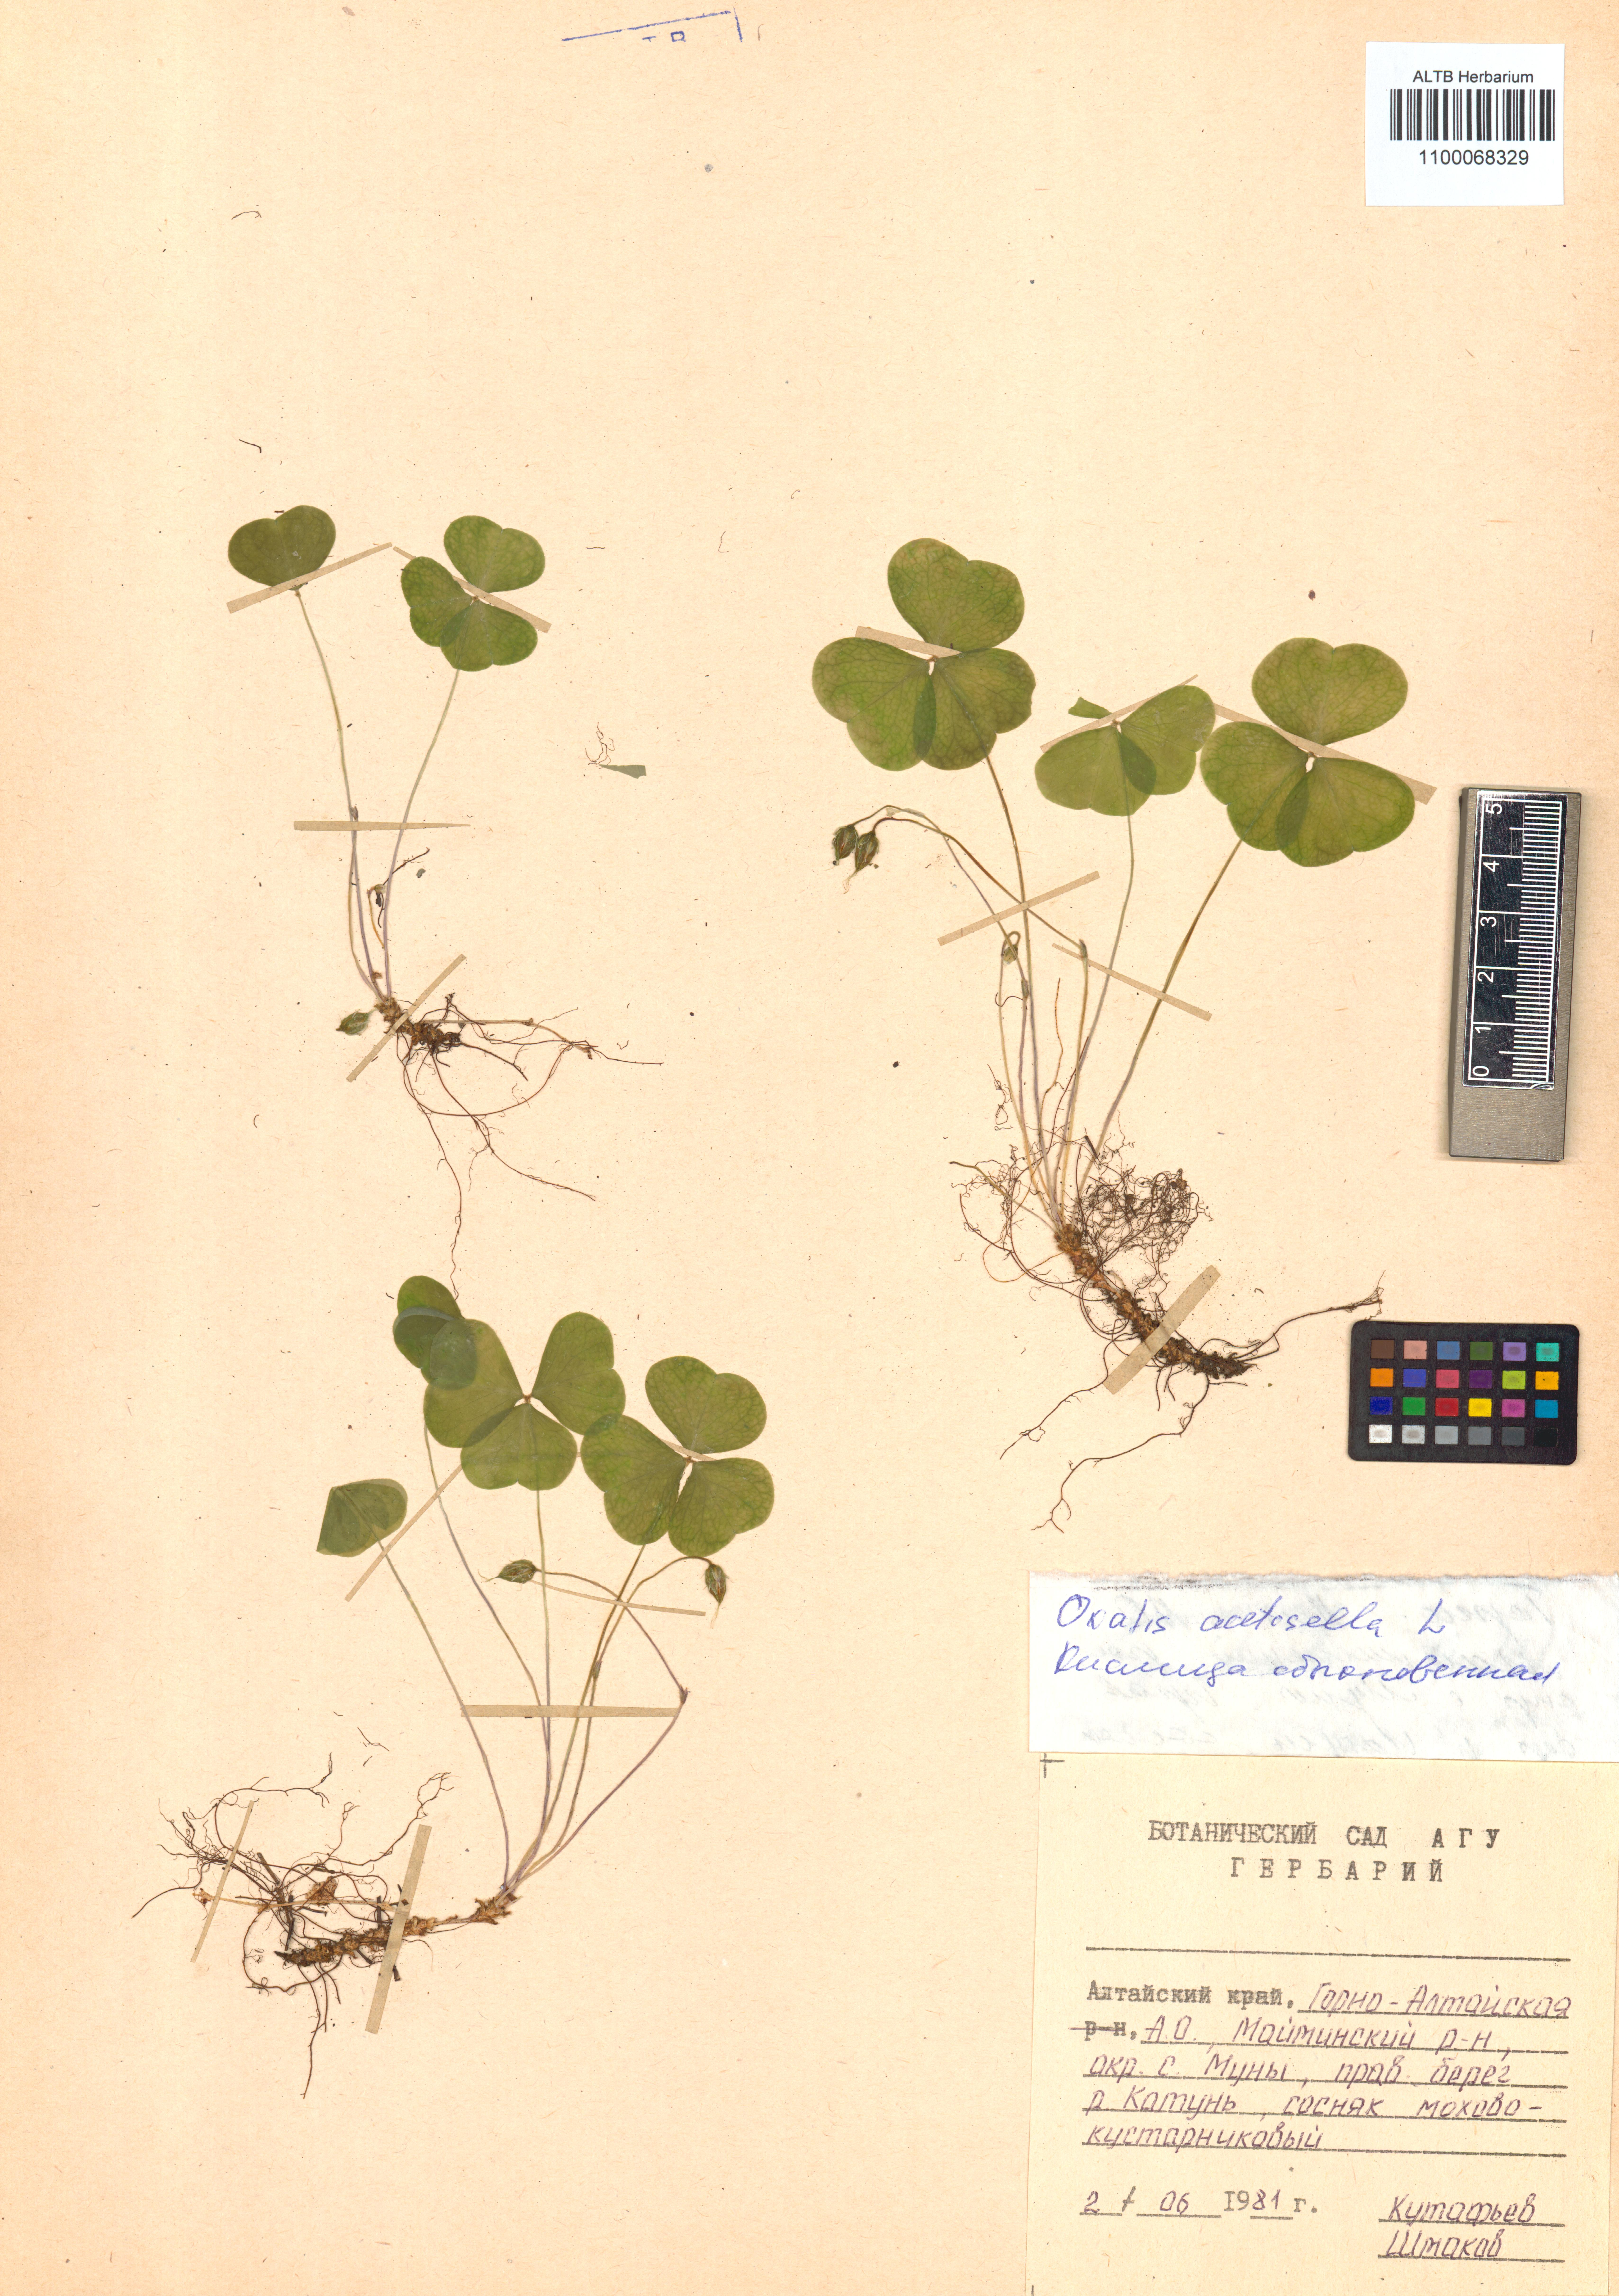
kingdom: Plantae
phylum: Tracheophyta
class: Magnoliopsida
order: Oxalidales
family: Oxalidaceae
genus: Oxalis
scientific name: Oxalis acetosella
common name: Wood-sorrel
